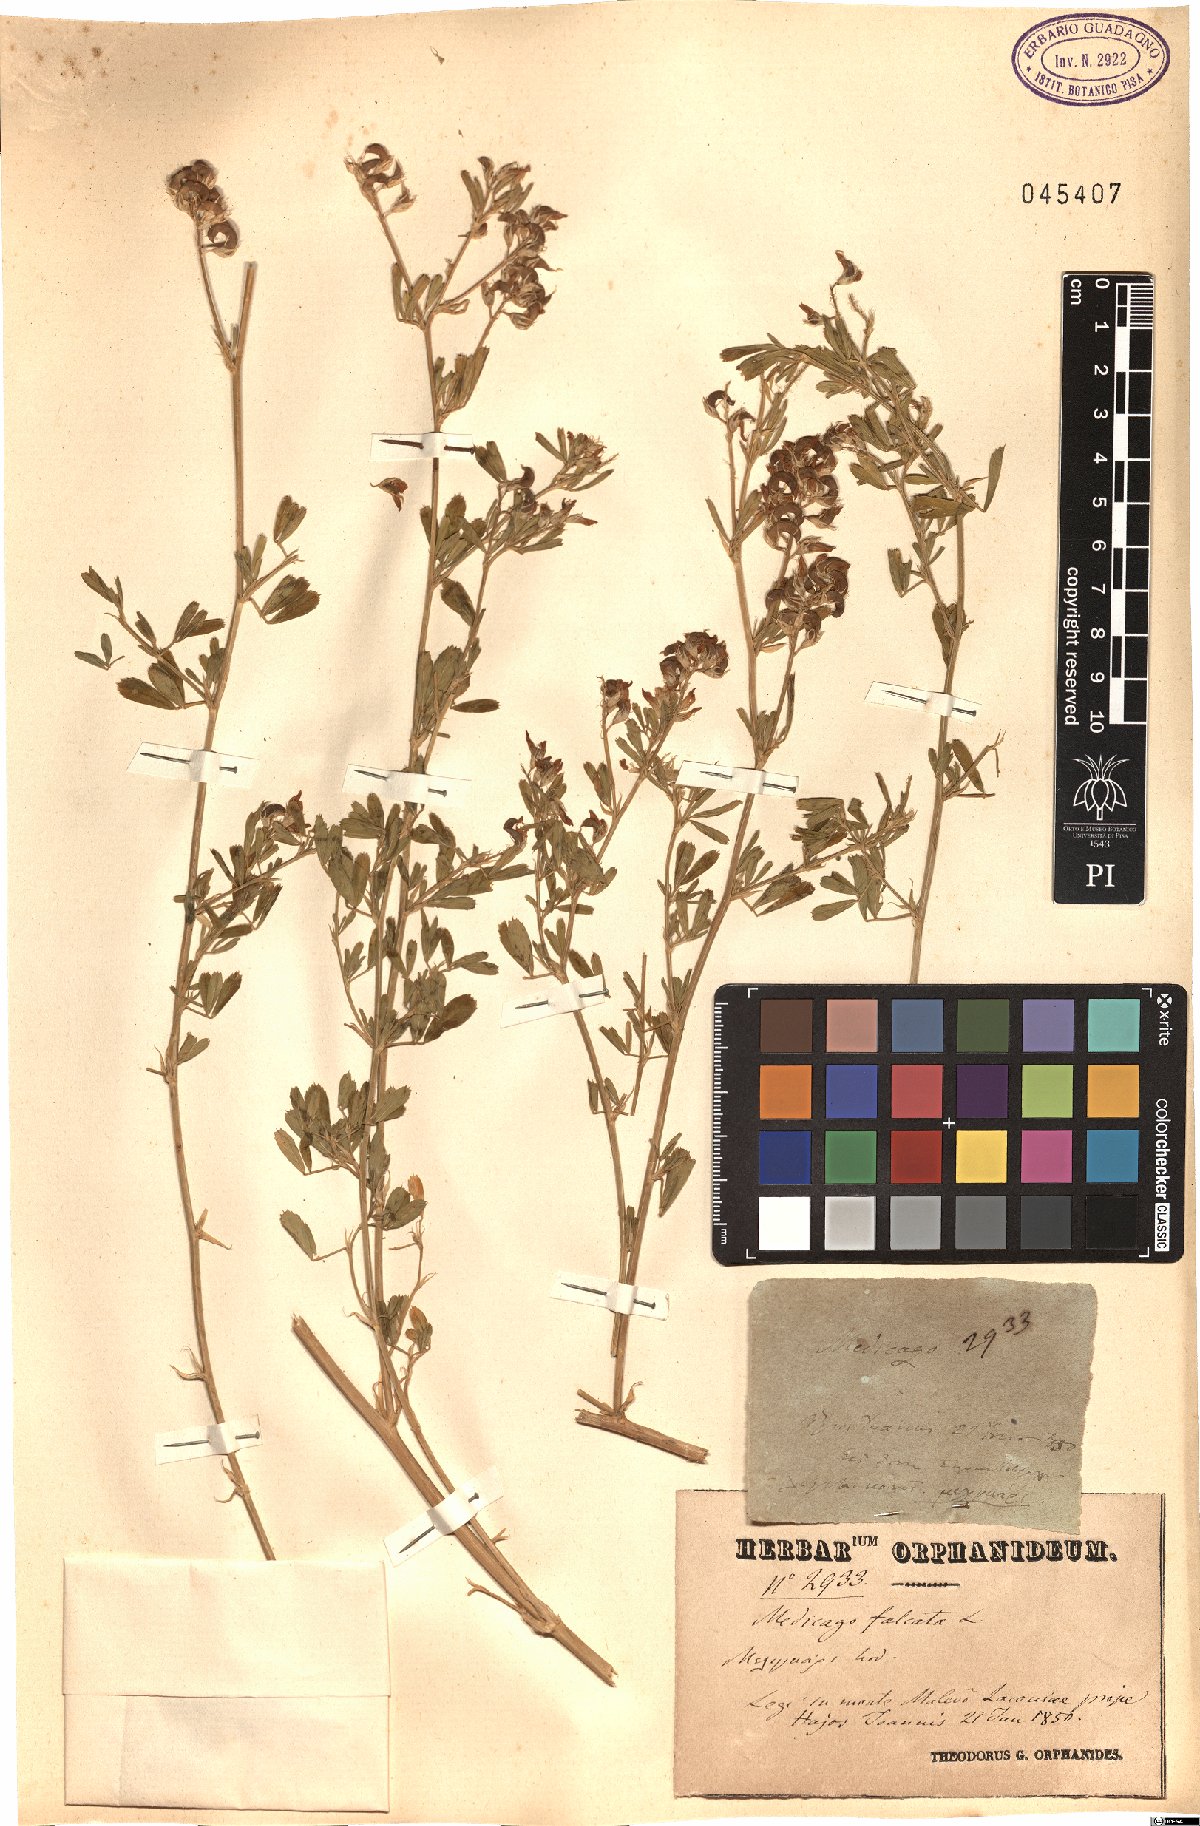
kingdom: Plantae
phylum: Tracheophyta
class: Magnoliopsida
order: Fabales
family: Fabaceae
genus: Medicago
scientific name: Medicago falcata
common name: Sickle medick
